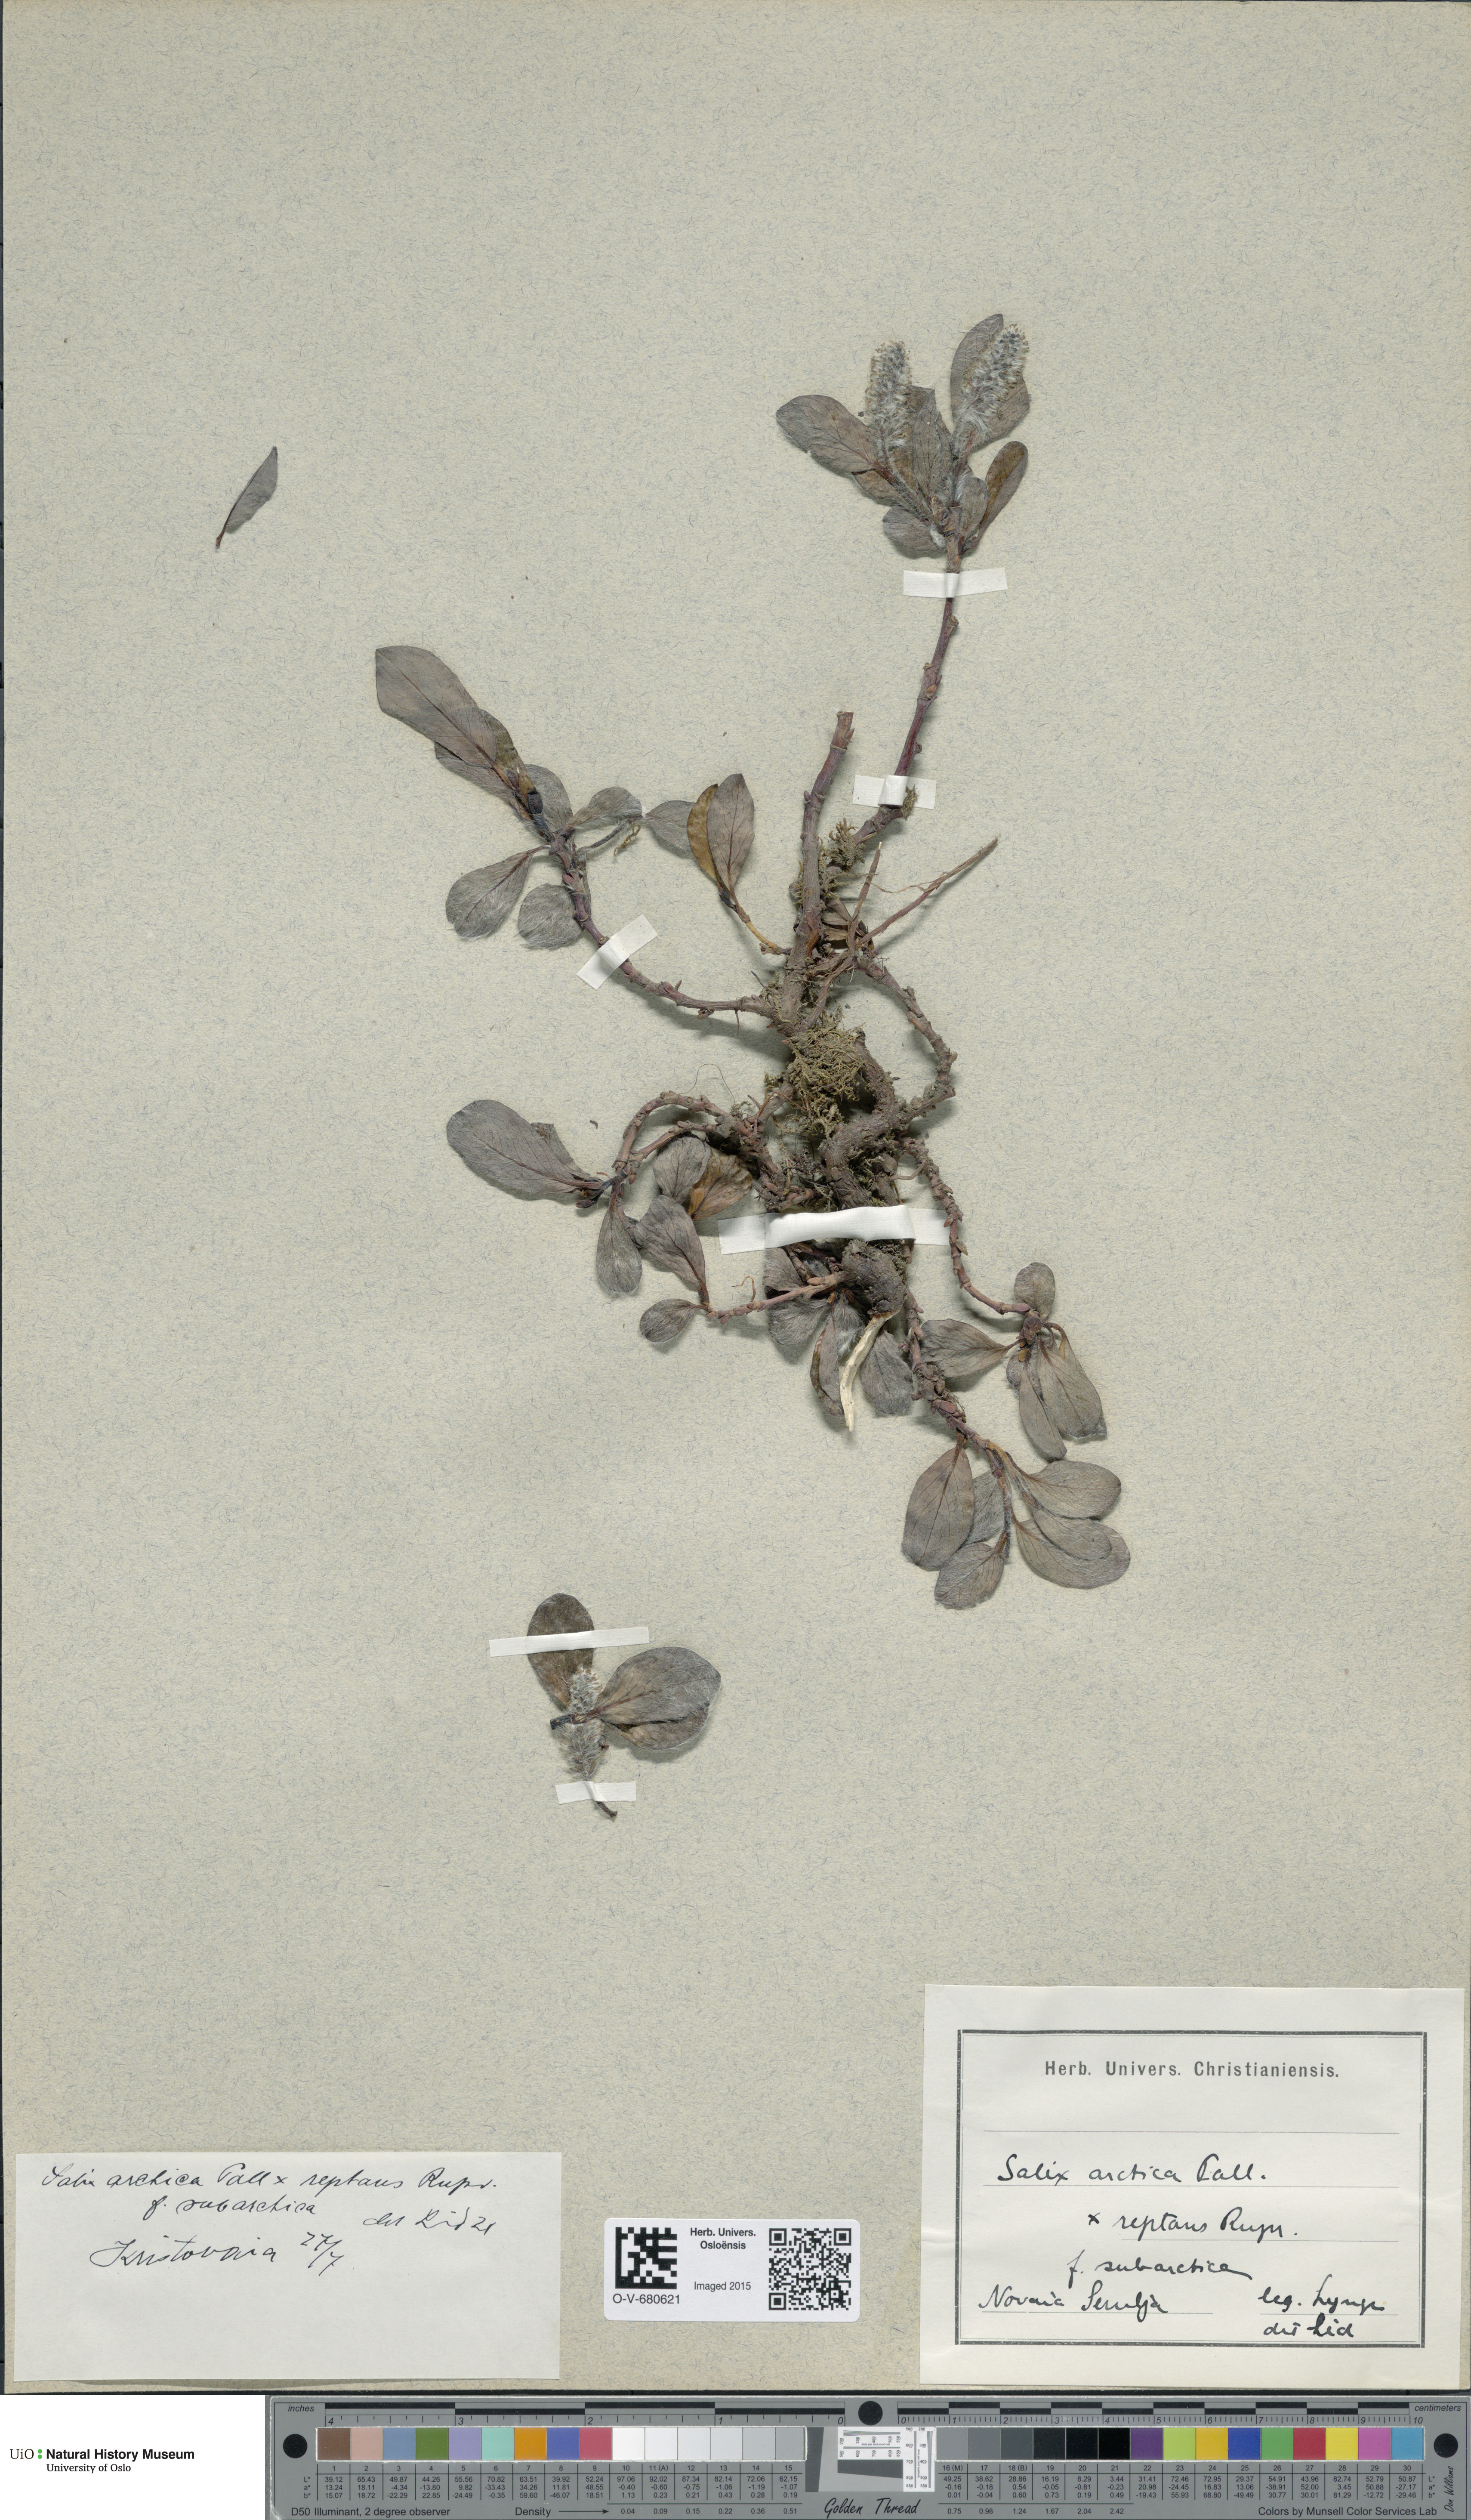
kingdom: Plantae
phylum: Tracheophyta
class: Magnoliopsida
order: Malpighiales
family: Salicaceae
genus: Salix
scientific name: Salix
